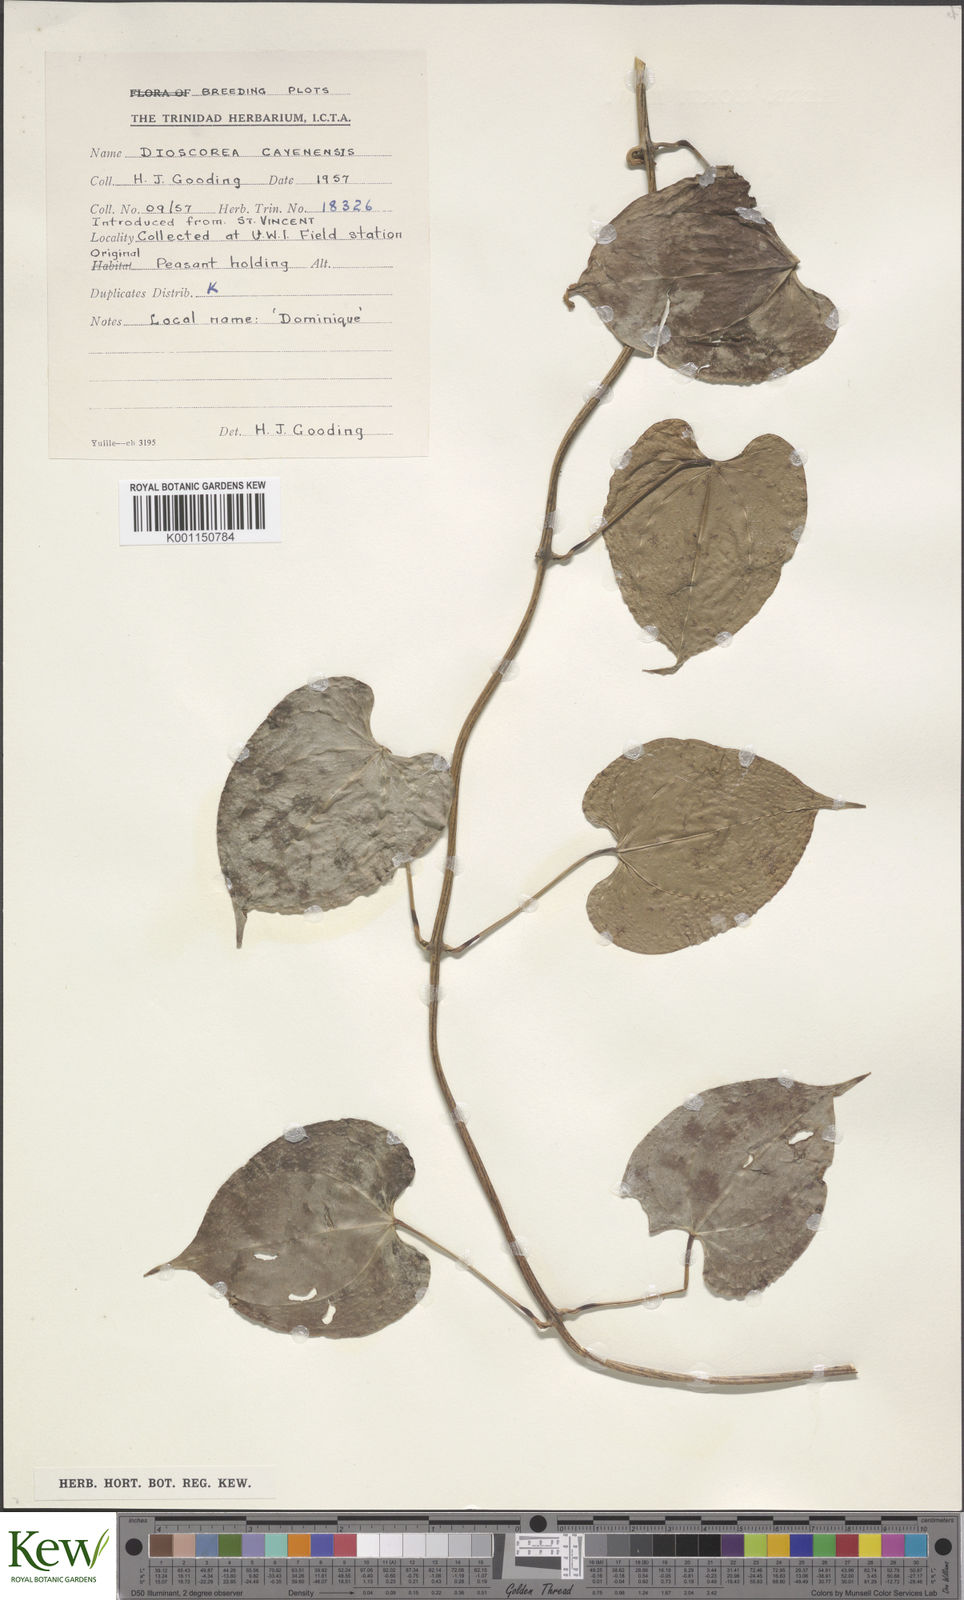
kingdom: Plantae
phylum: Tracheophyta
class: Liliopsida
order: Dioscoreales
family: Dioscoreaceae
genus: Dioscorea
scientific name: Dioscorea cayenensis
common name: Attoto yam
